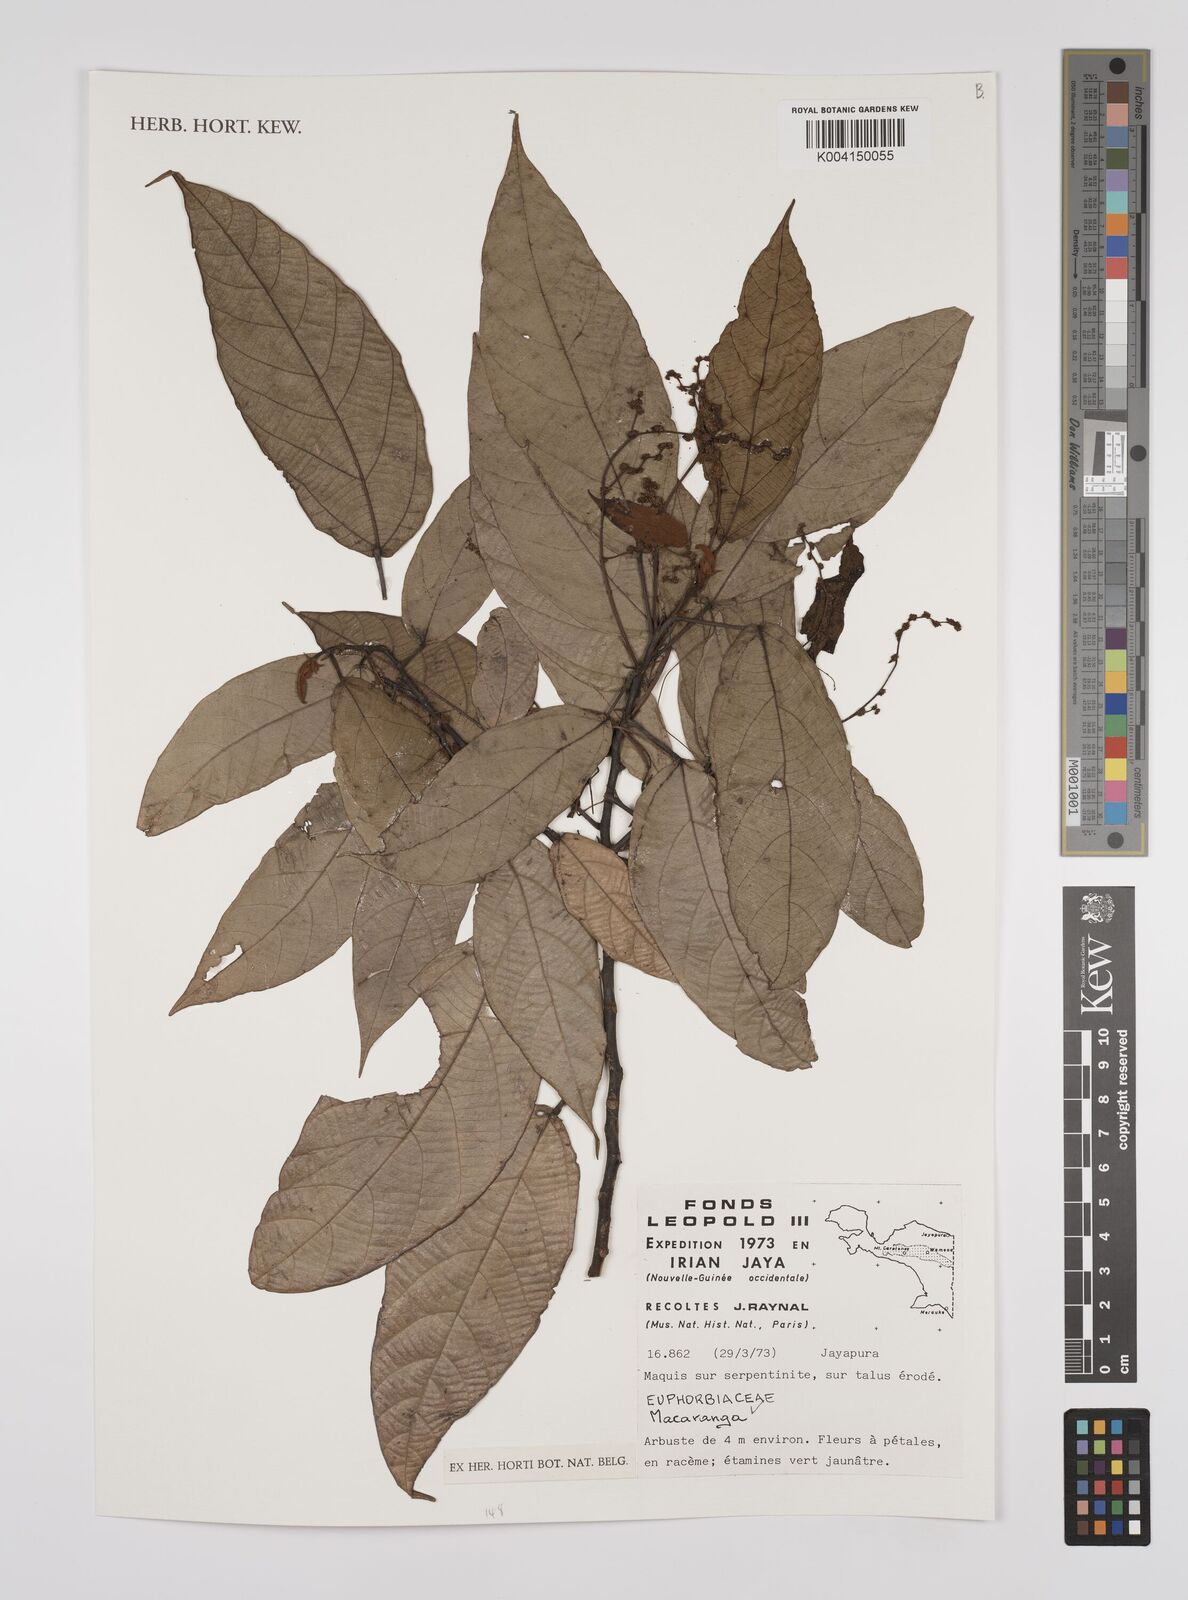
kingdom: Plantae
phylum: Tracheophyta
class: Magnoliopsida
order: Malpighiales
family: Euphorbiaceae
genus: Macaranga
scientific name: Macaranga
